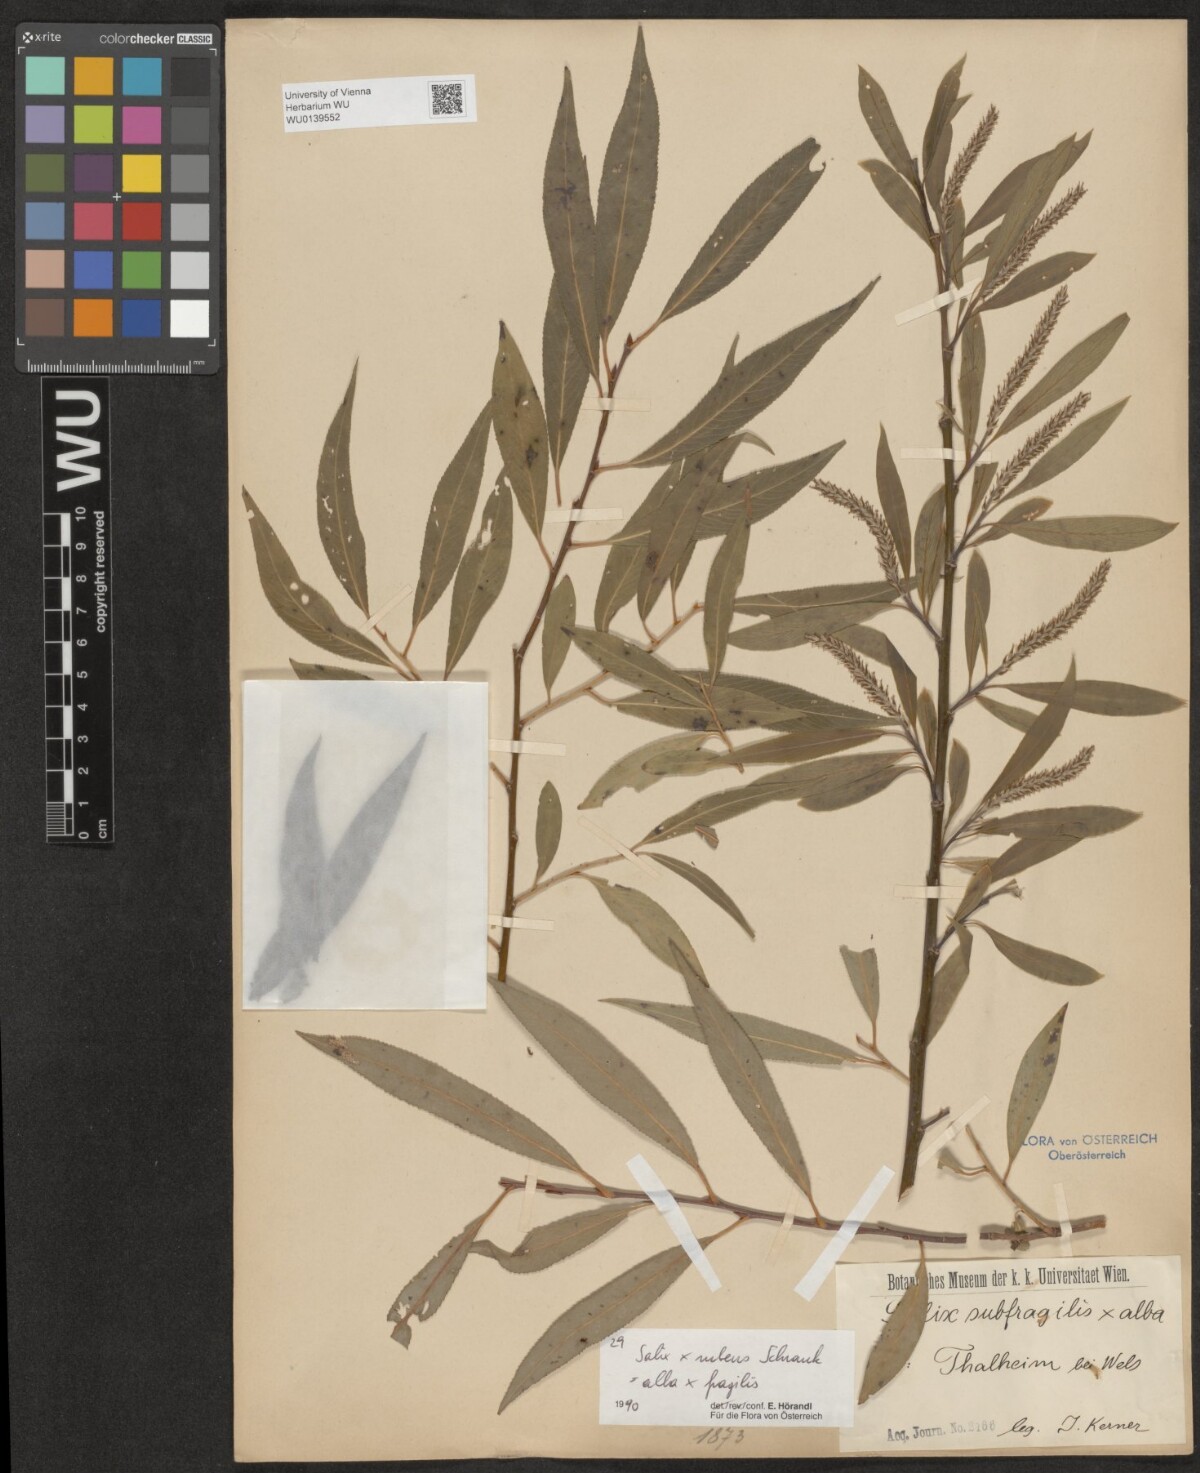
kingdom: Plantae
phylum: Tracheophyta
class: Magnoliopsida
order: Malpighiales
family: Salicaceae
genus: Salix
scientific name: Salix rubens
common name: Hybrid crack willow
